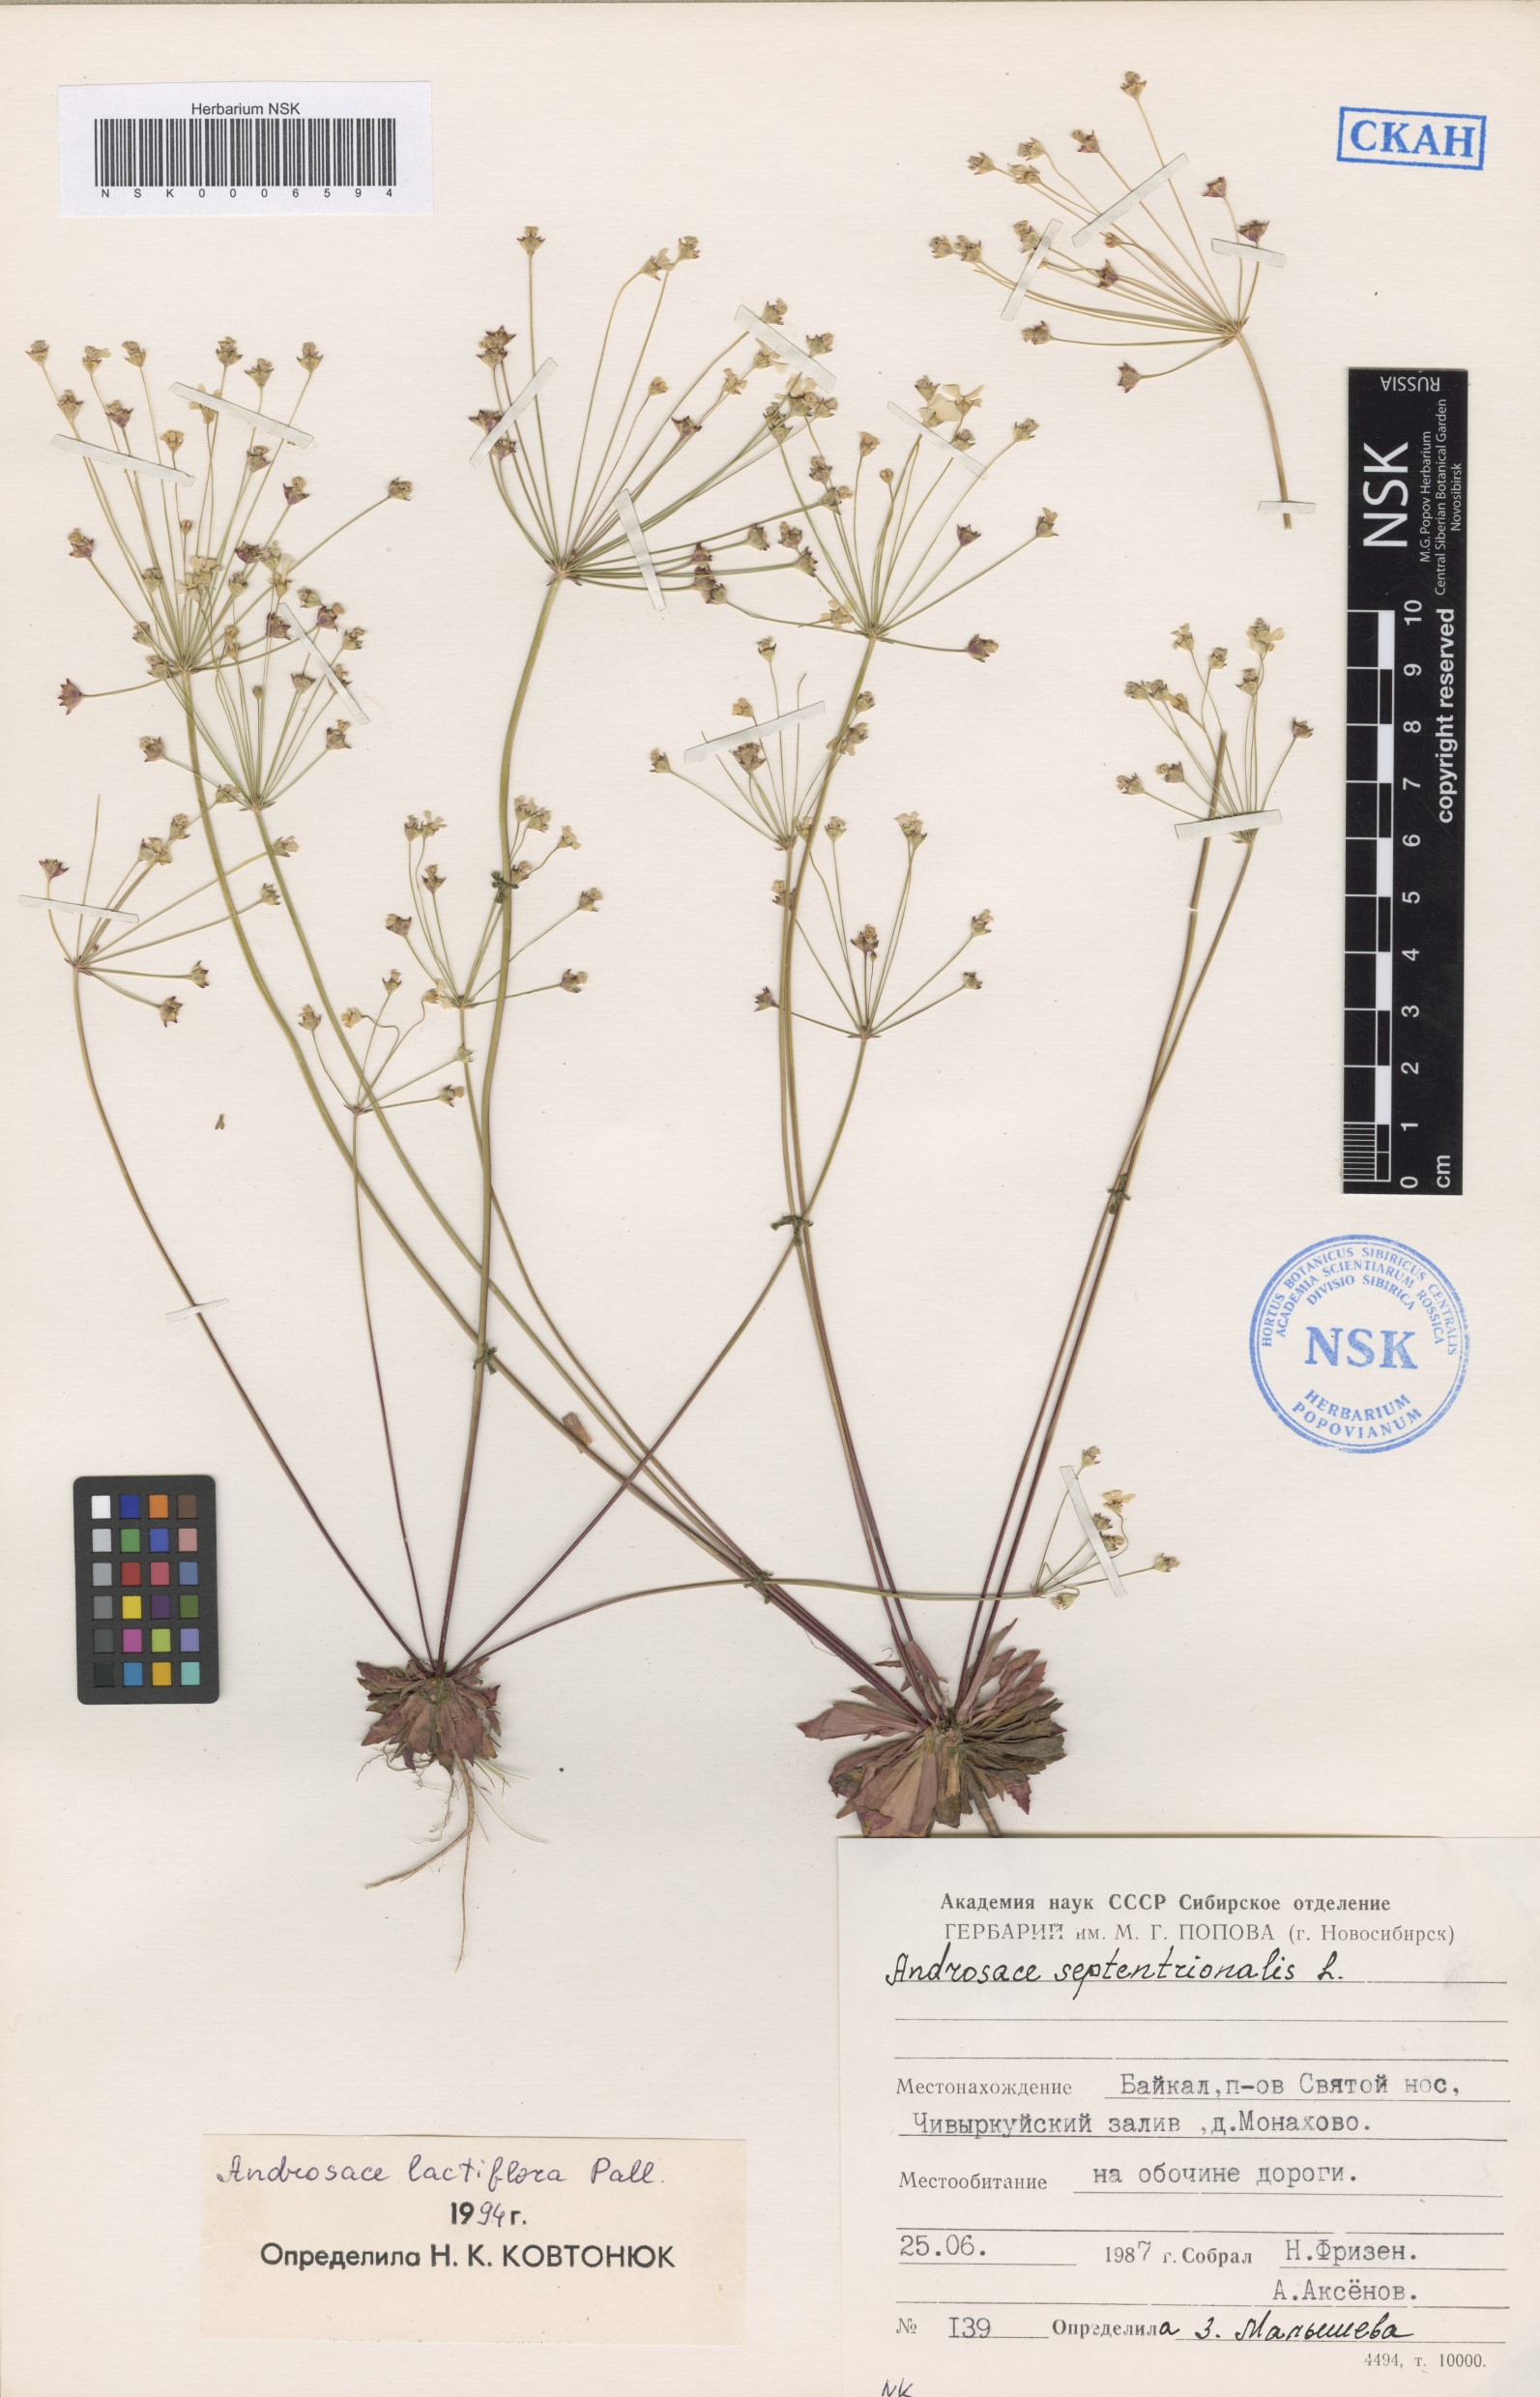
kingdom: Plantae
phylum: Tracheophyta
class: Magnoliopsida
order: Ericales
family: Primulaceae
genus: Androsace
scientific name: Androsace lactiflora
